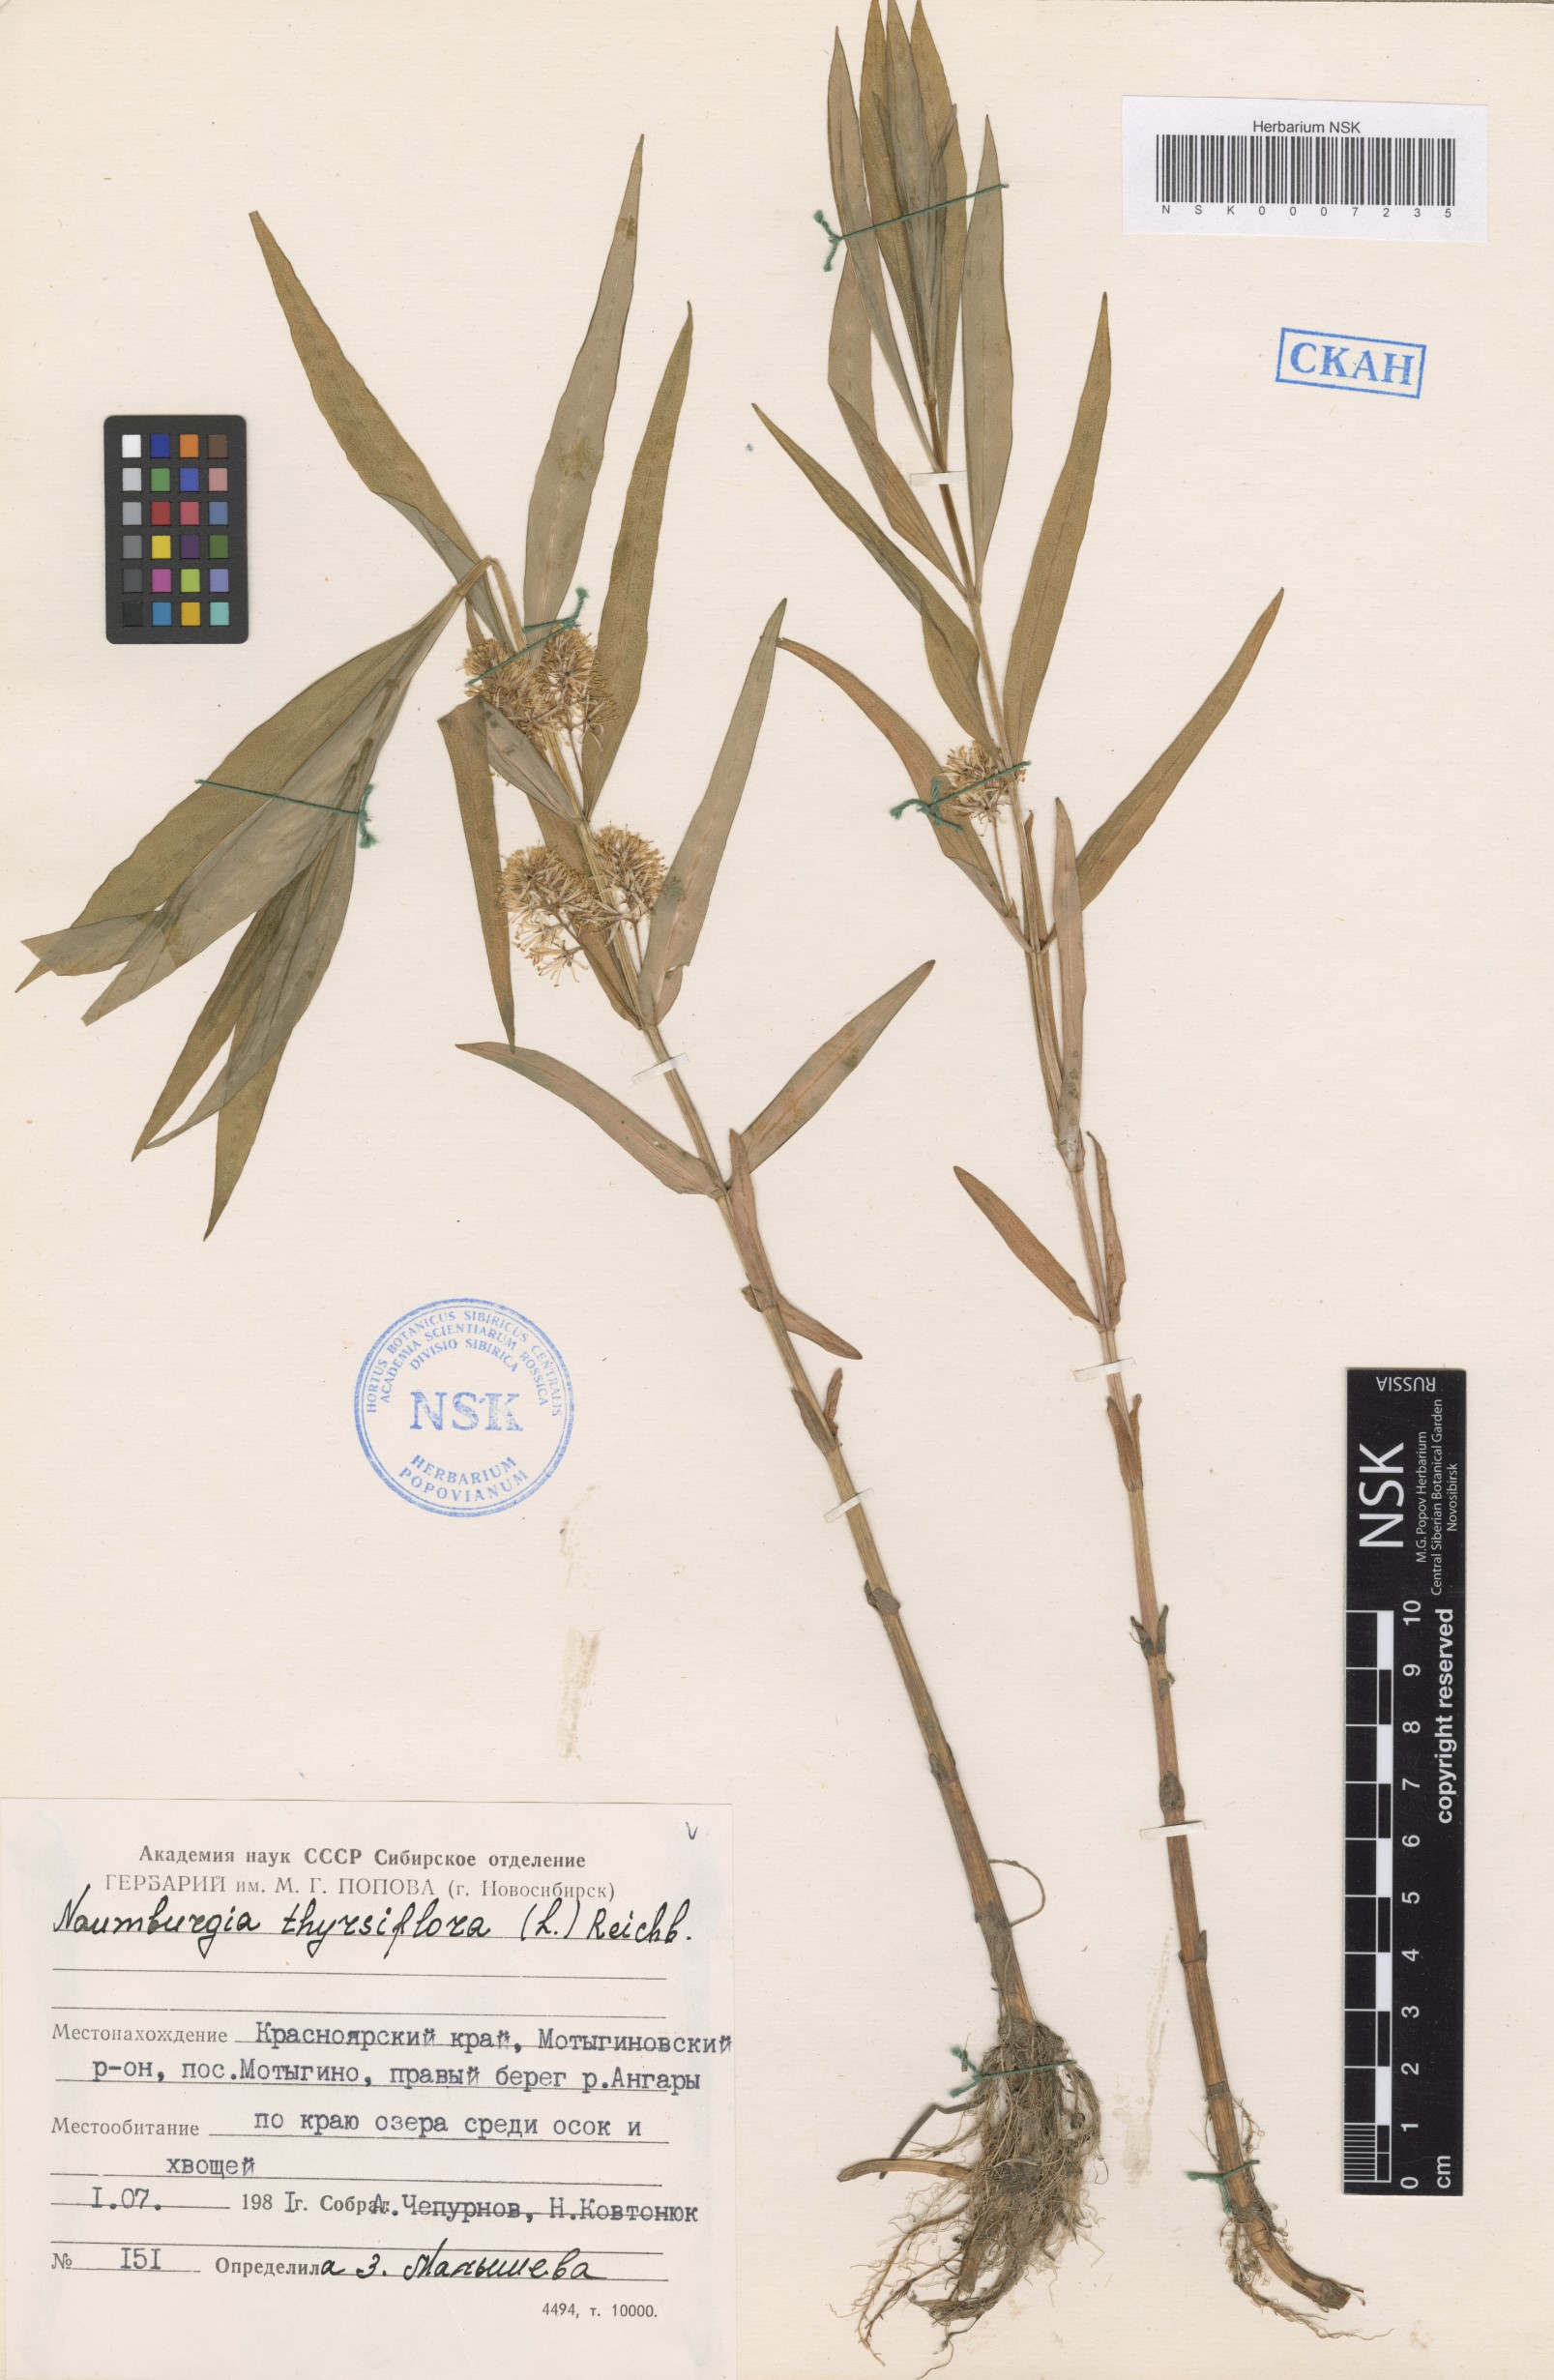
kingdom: Plantae
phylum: Tracheophyta
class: Magnoliopsida
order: Ericales
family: Primulaceae
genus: Lysimachia
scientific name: Lysimachia thyrsiflora
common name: Tufted loosestrife
